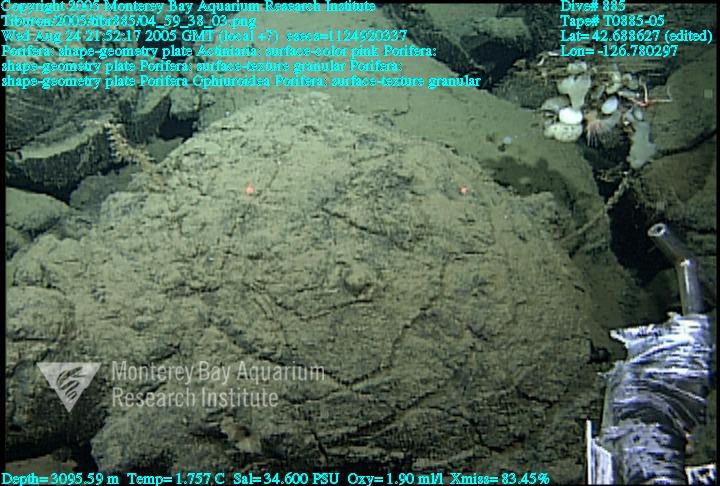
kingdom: Animalia
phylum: Porifera
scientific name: Porifera
